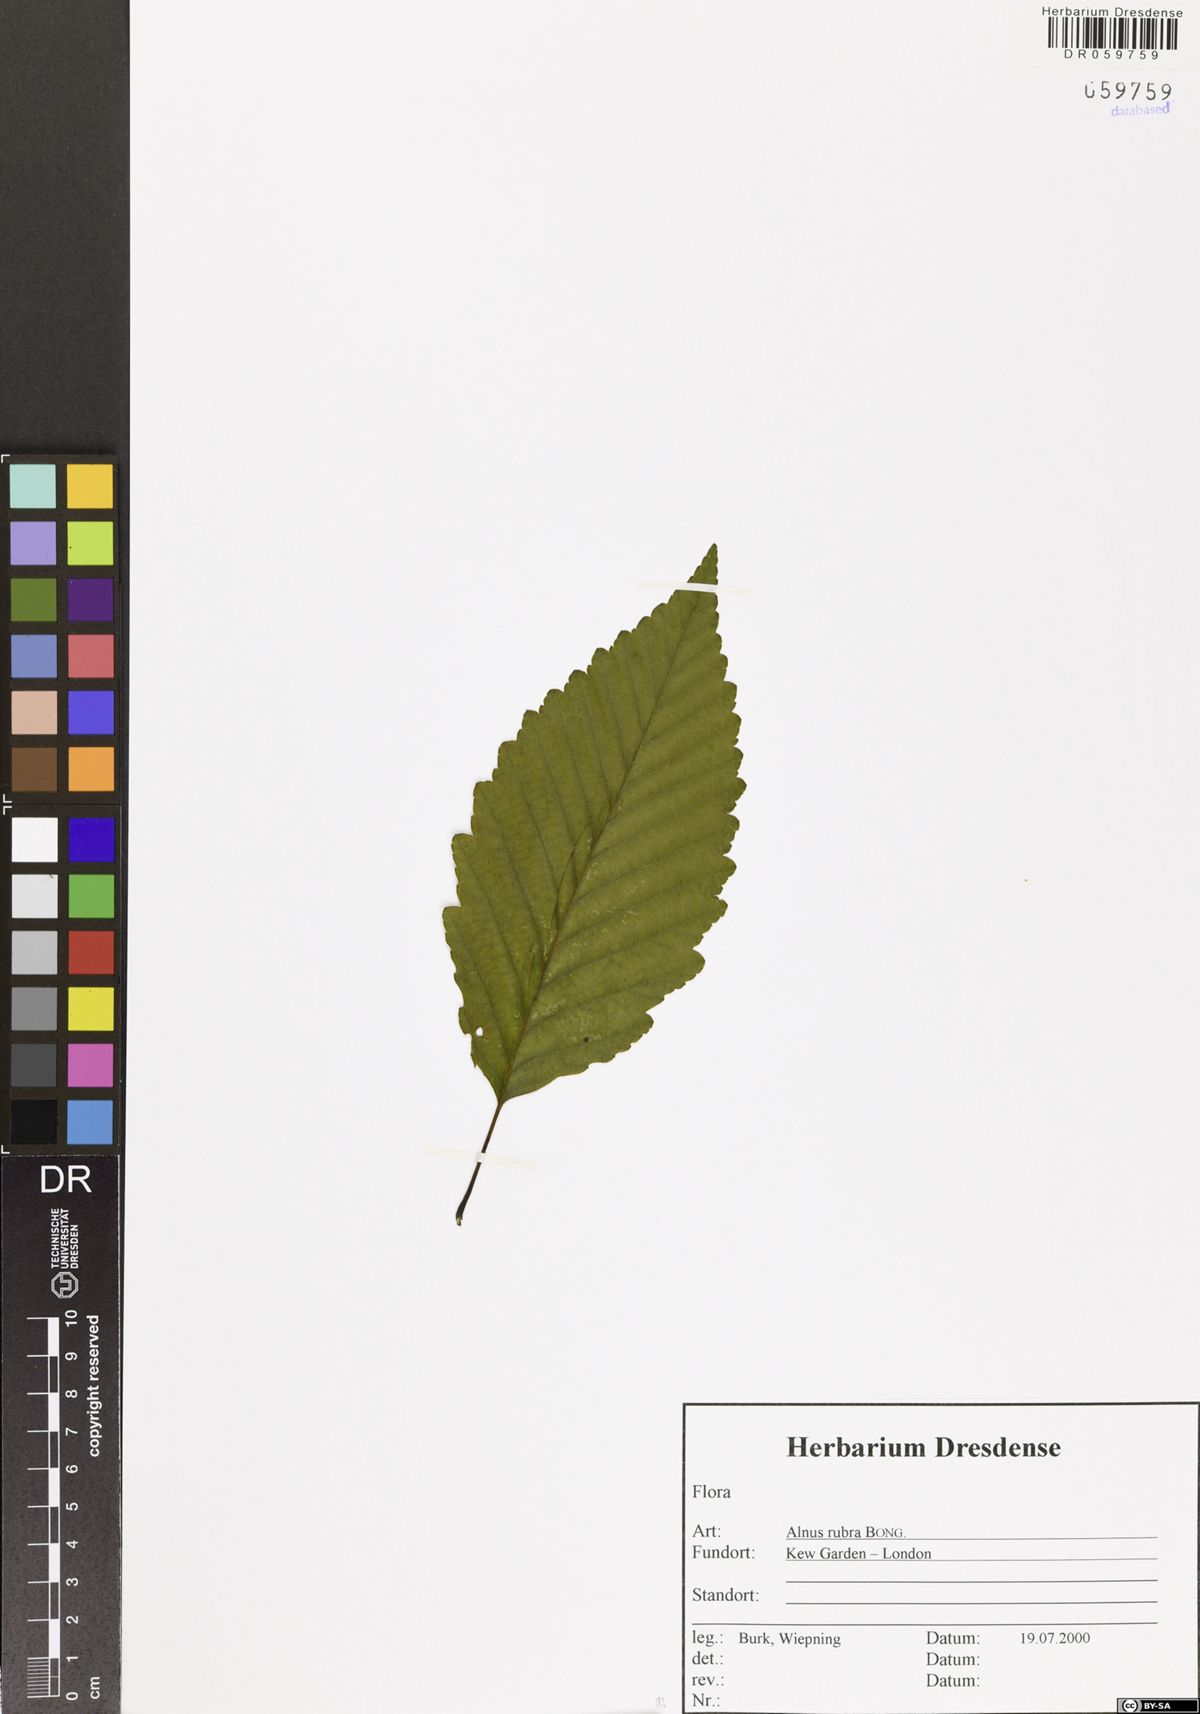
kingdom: Plantae
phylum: Tracheophyta
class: Magnoliopsida
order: Fagales
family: Betulaceae
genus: Alnus
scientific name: Alnus rubra
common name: Red alder
